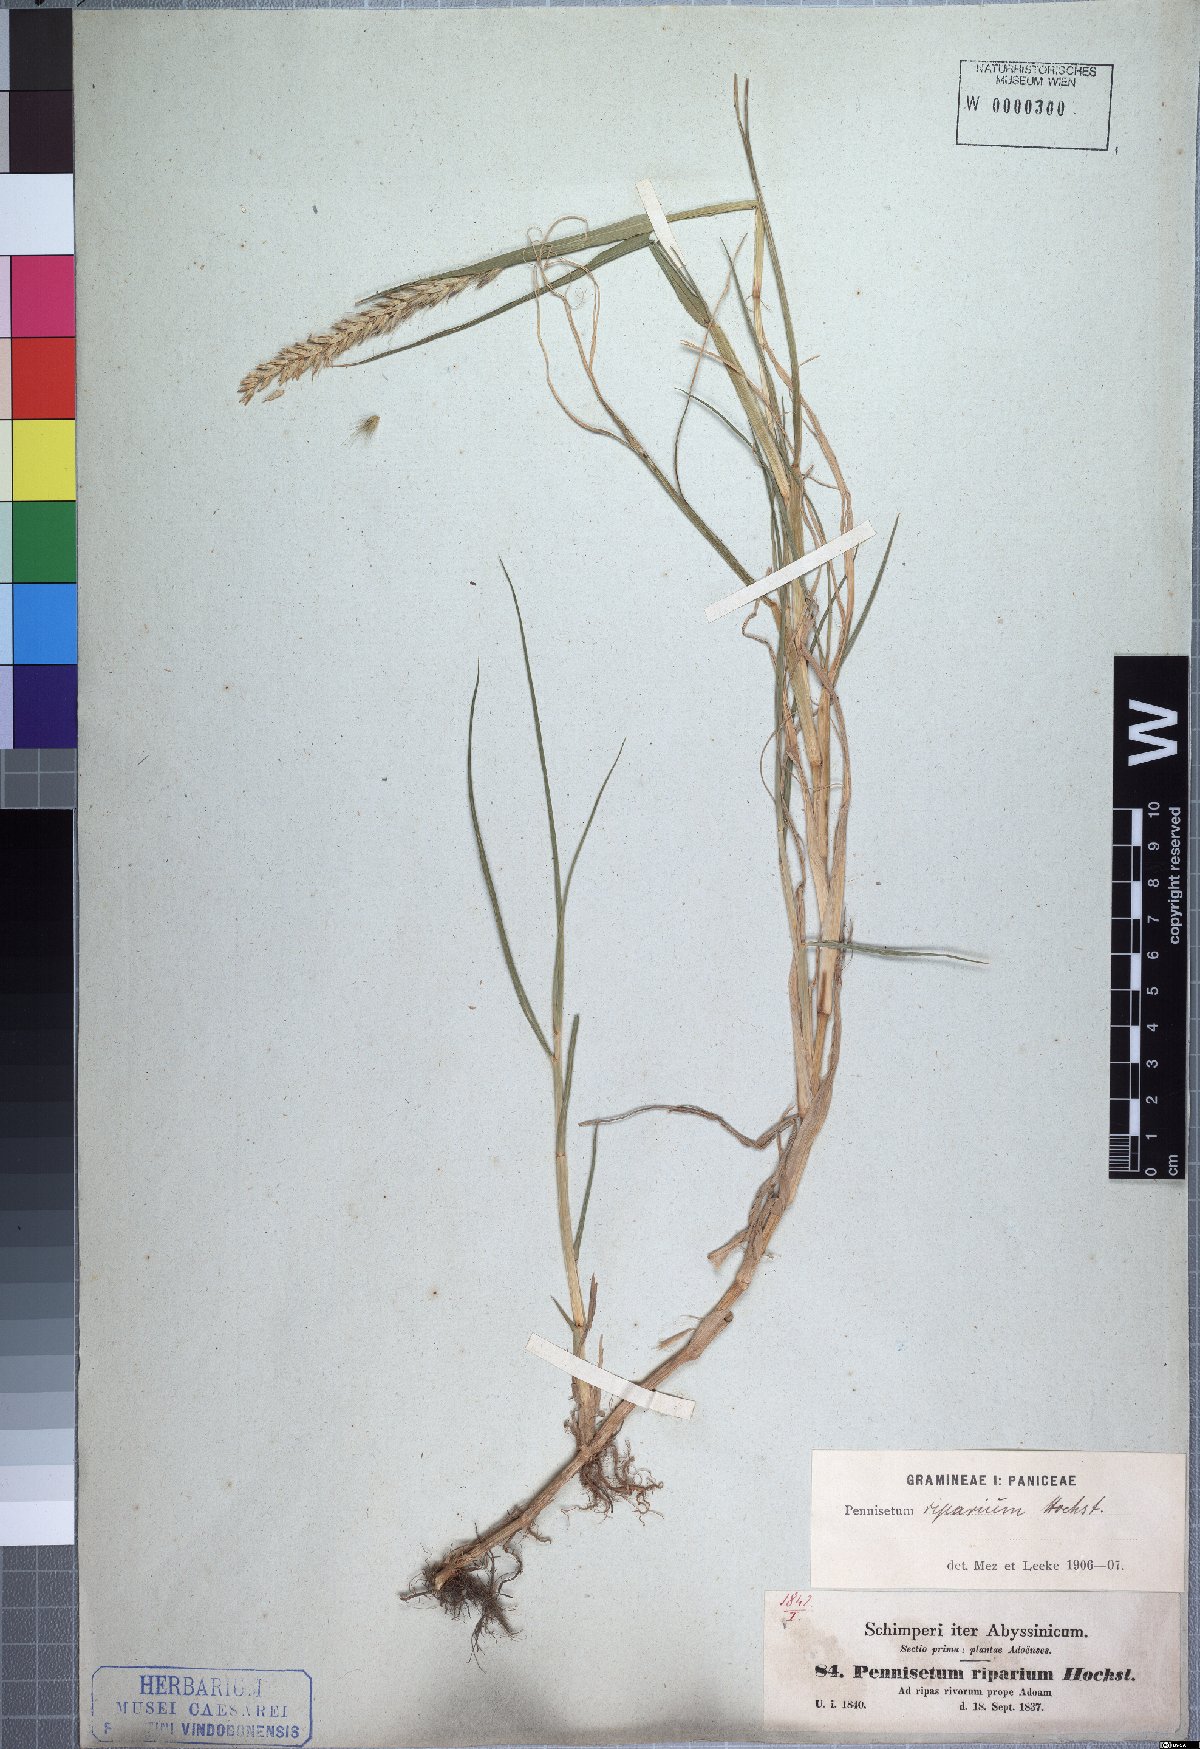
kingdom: Plantae
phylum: Tracheophyta
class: Liliopsida
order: Poales
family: Poaceae
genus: Cenchrus
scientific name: Cenchrus riparius
